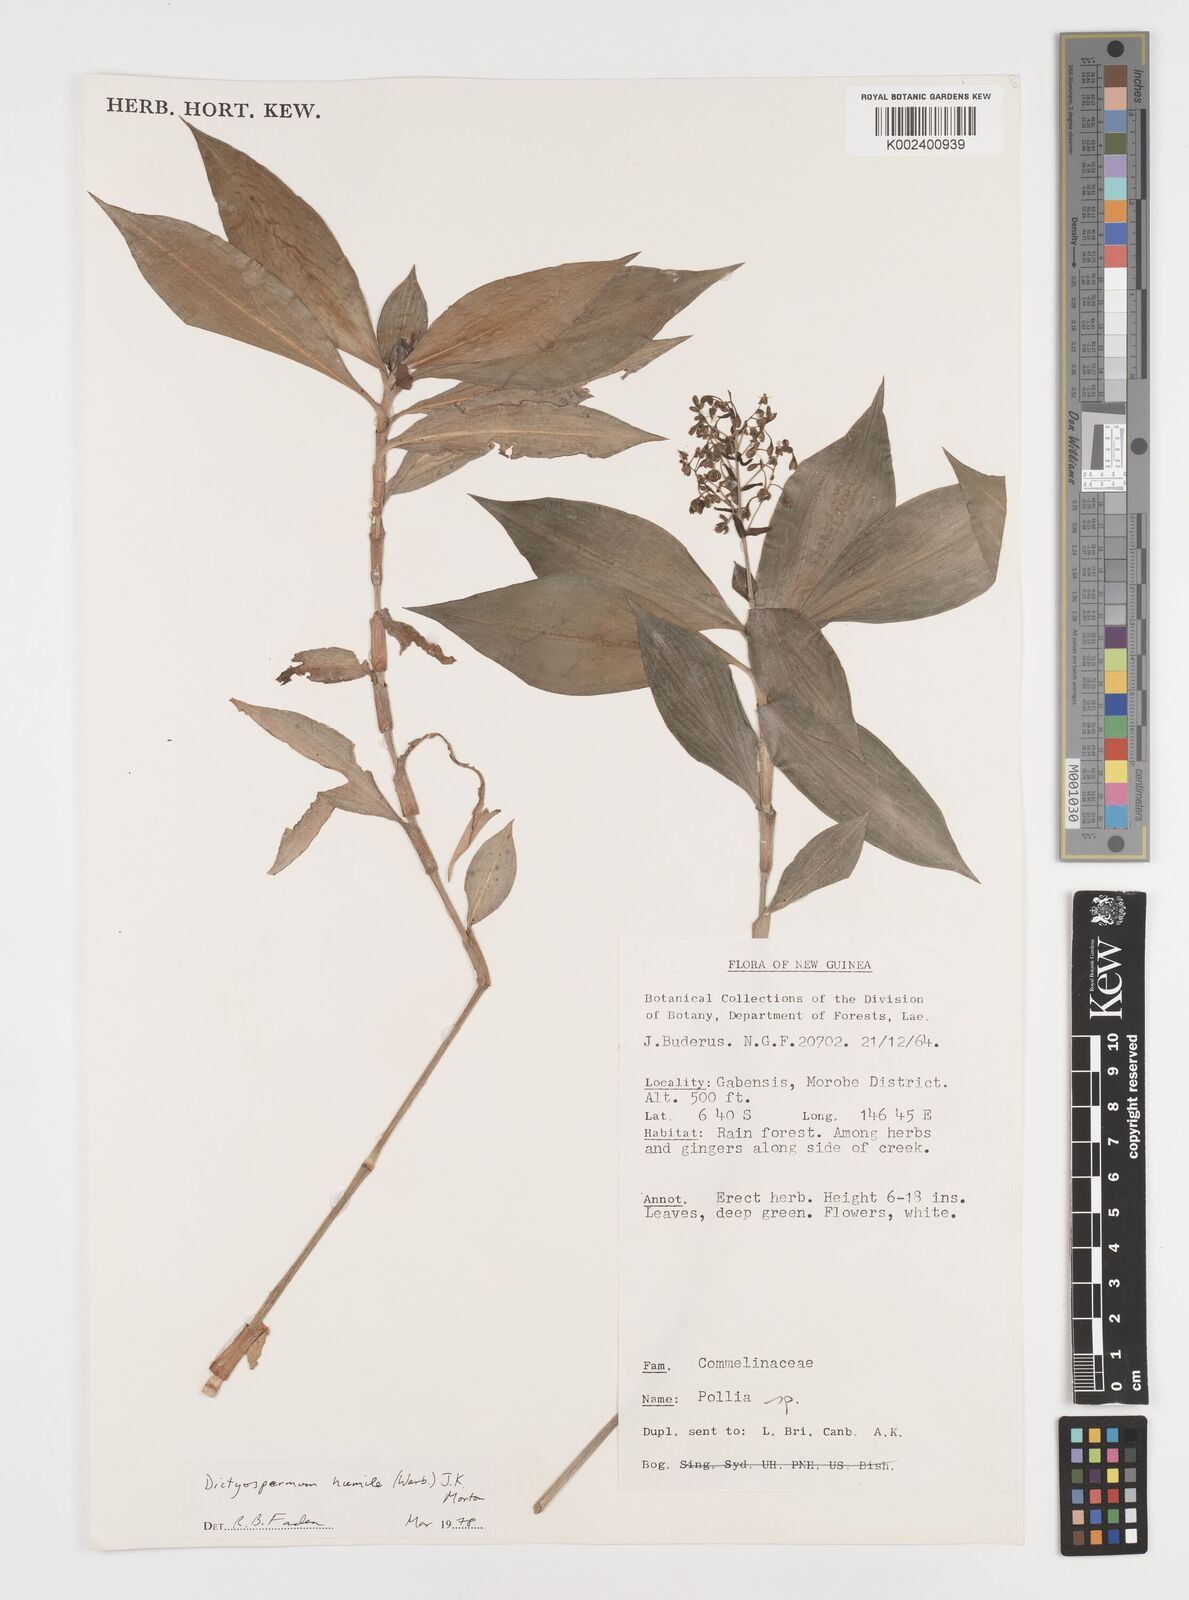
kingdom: Plantae
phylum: Tracheophyta
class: Liliopsida
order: Commelinales
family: Commelinaceae
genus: Dictyospermum
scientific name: Dictyospermum humile
